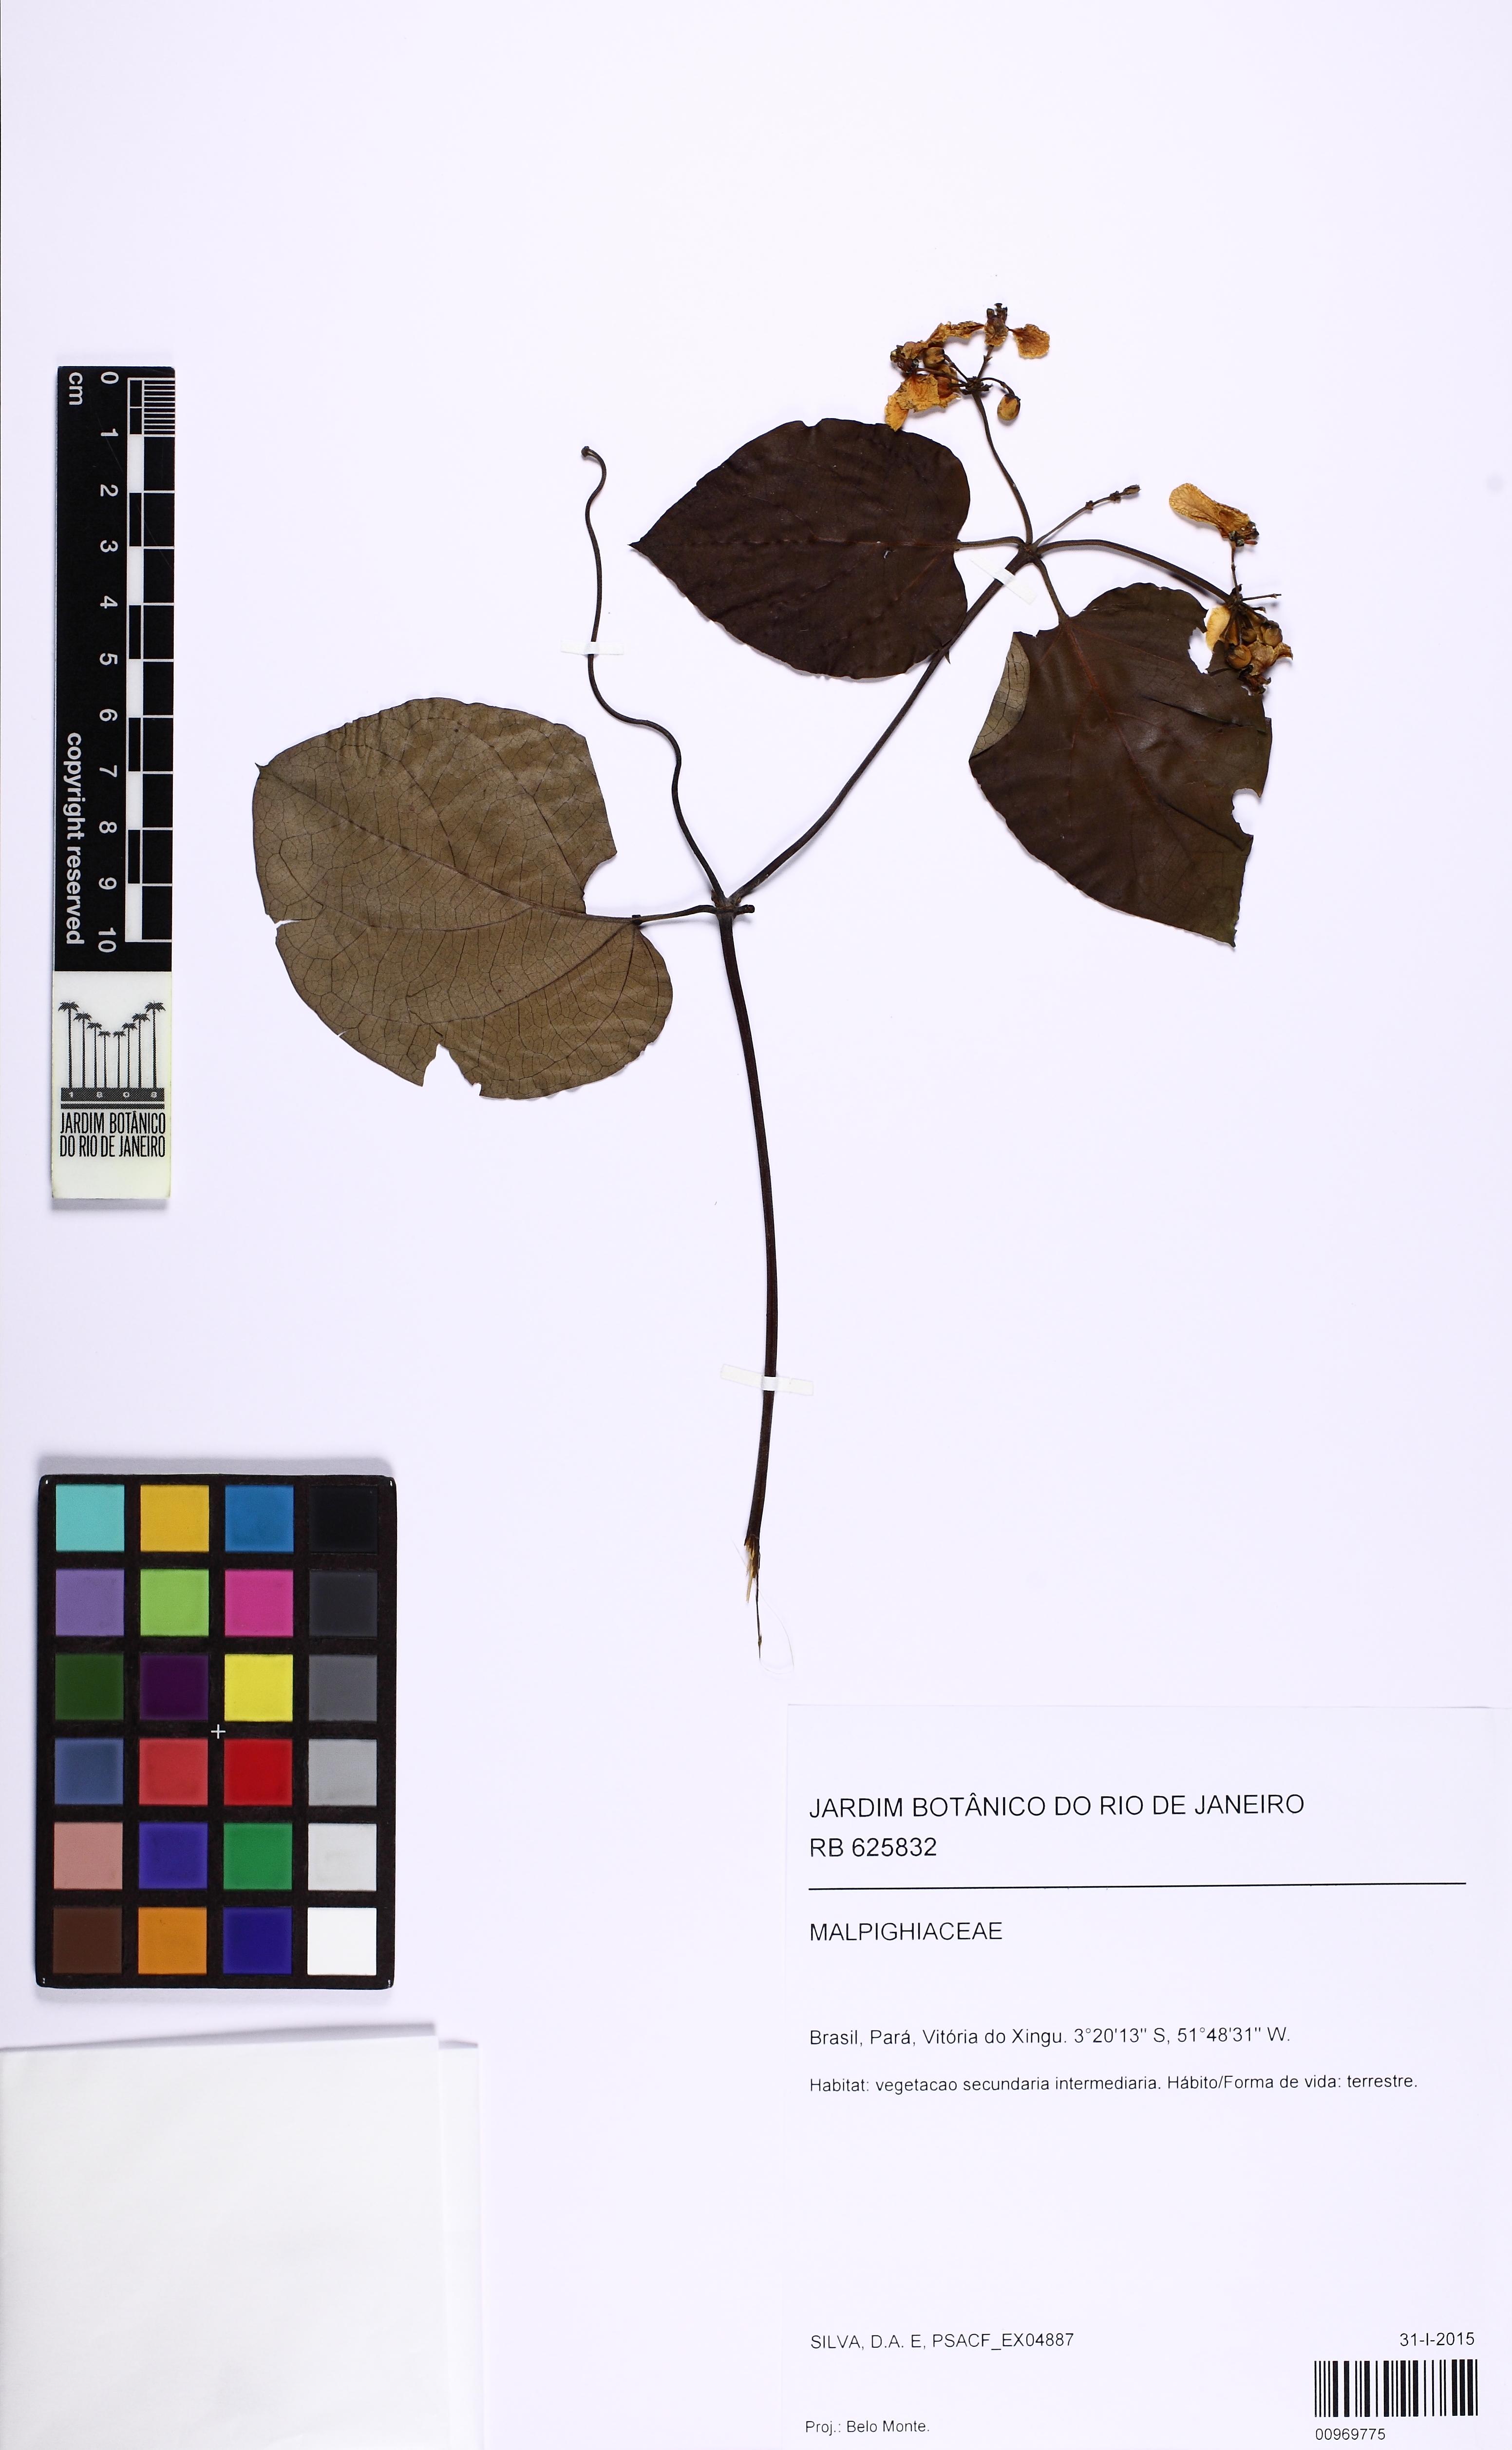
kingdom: Plantae
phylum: Tracheophyta
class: Magnoliopsida
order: Malpighiales
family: Malpighiaceae
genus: Stigmaphyllon
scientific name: Stigmaphyllon sinuatum
